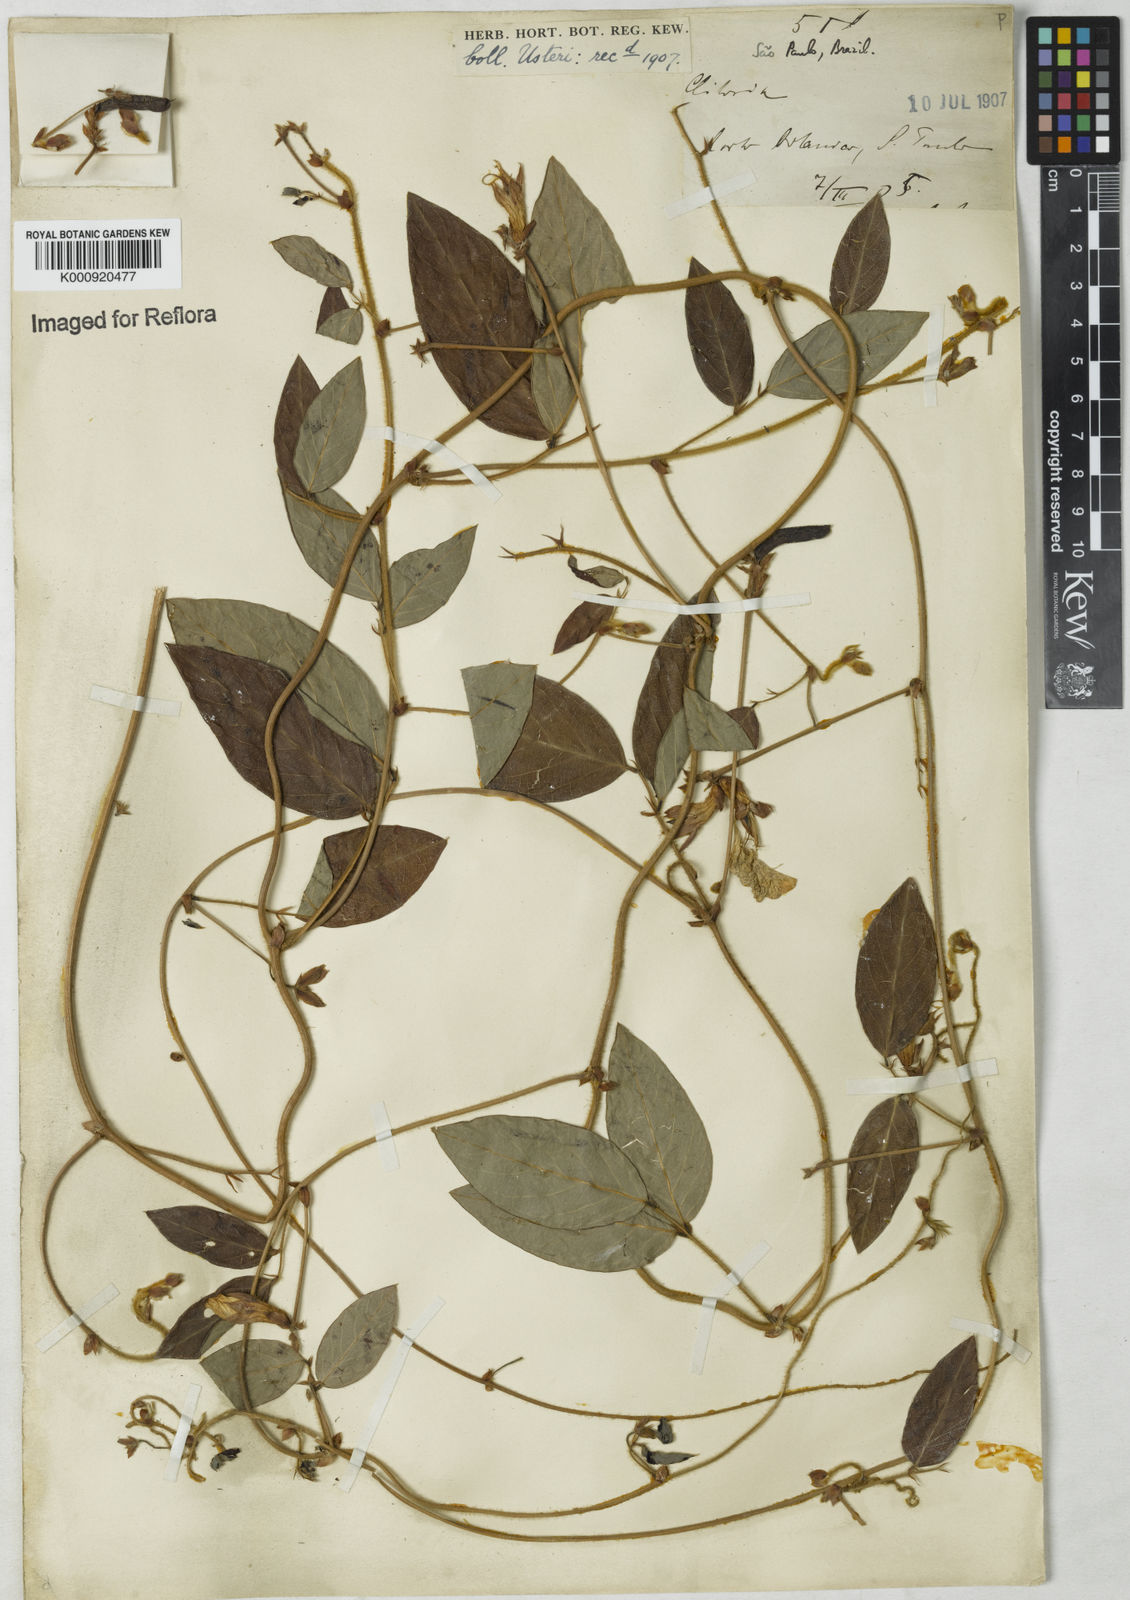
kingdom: Plantae
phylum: Tracheophyta
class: Magnoliopsida
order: Fabales
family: Fabaceae
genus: Clitoria
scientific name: Clitoria
